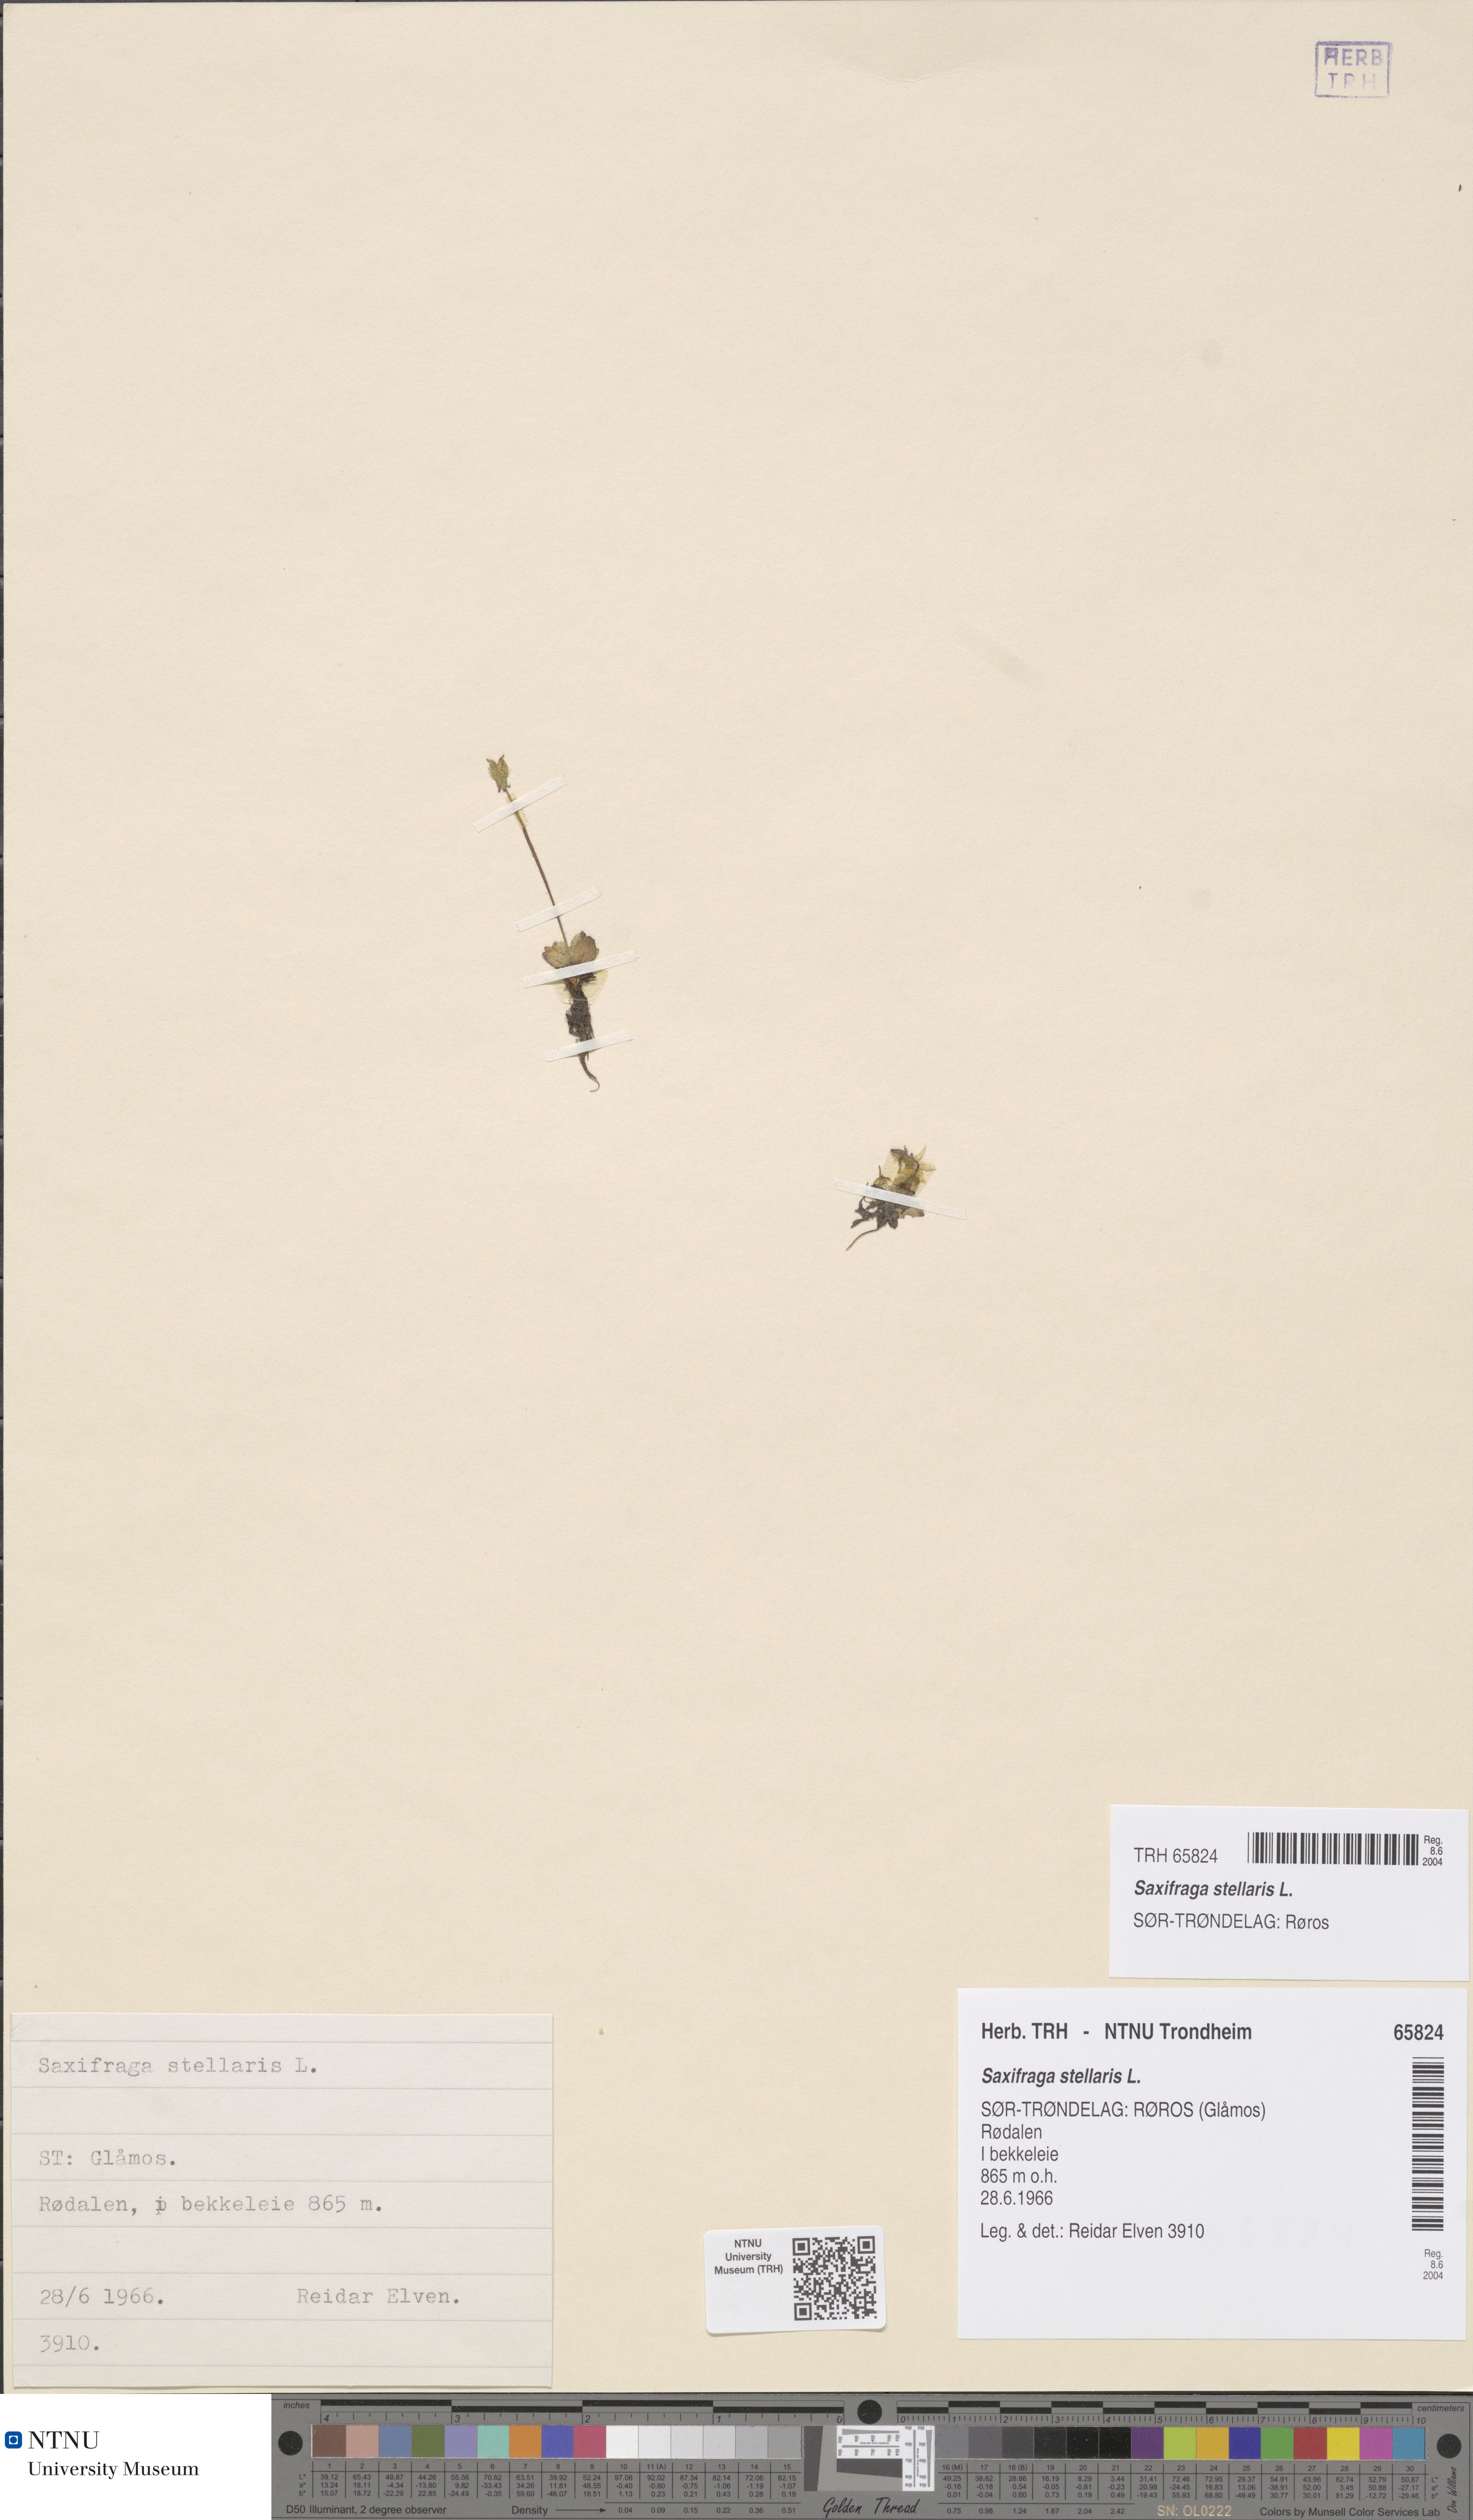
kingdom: Plantae
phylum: Tracheophyta
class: Magnoliopsida
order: Saxifragales
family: Saxifragaceae
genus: Micranthes
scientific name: Micranthes stellaris
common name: Starry saxifrage
